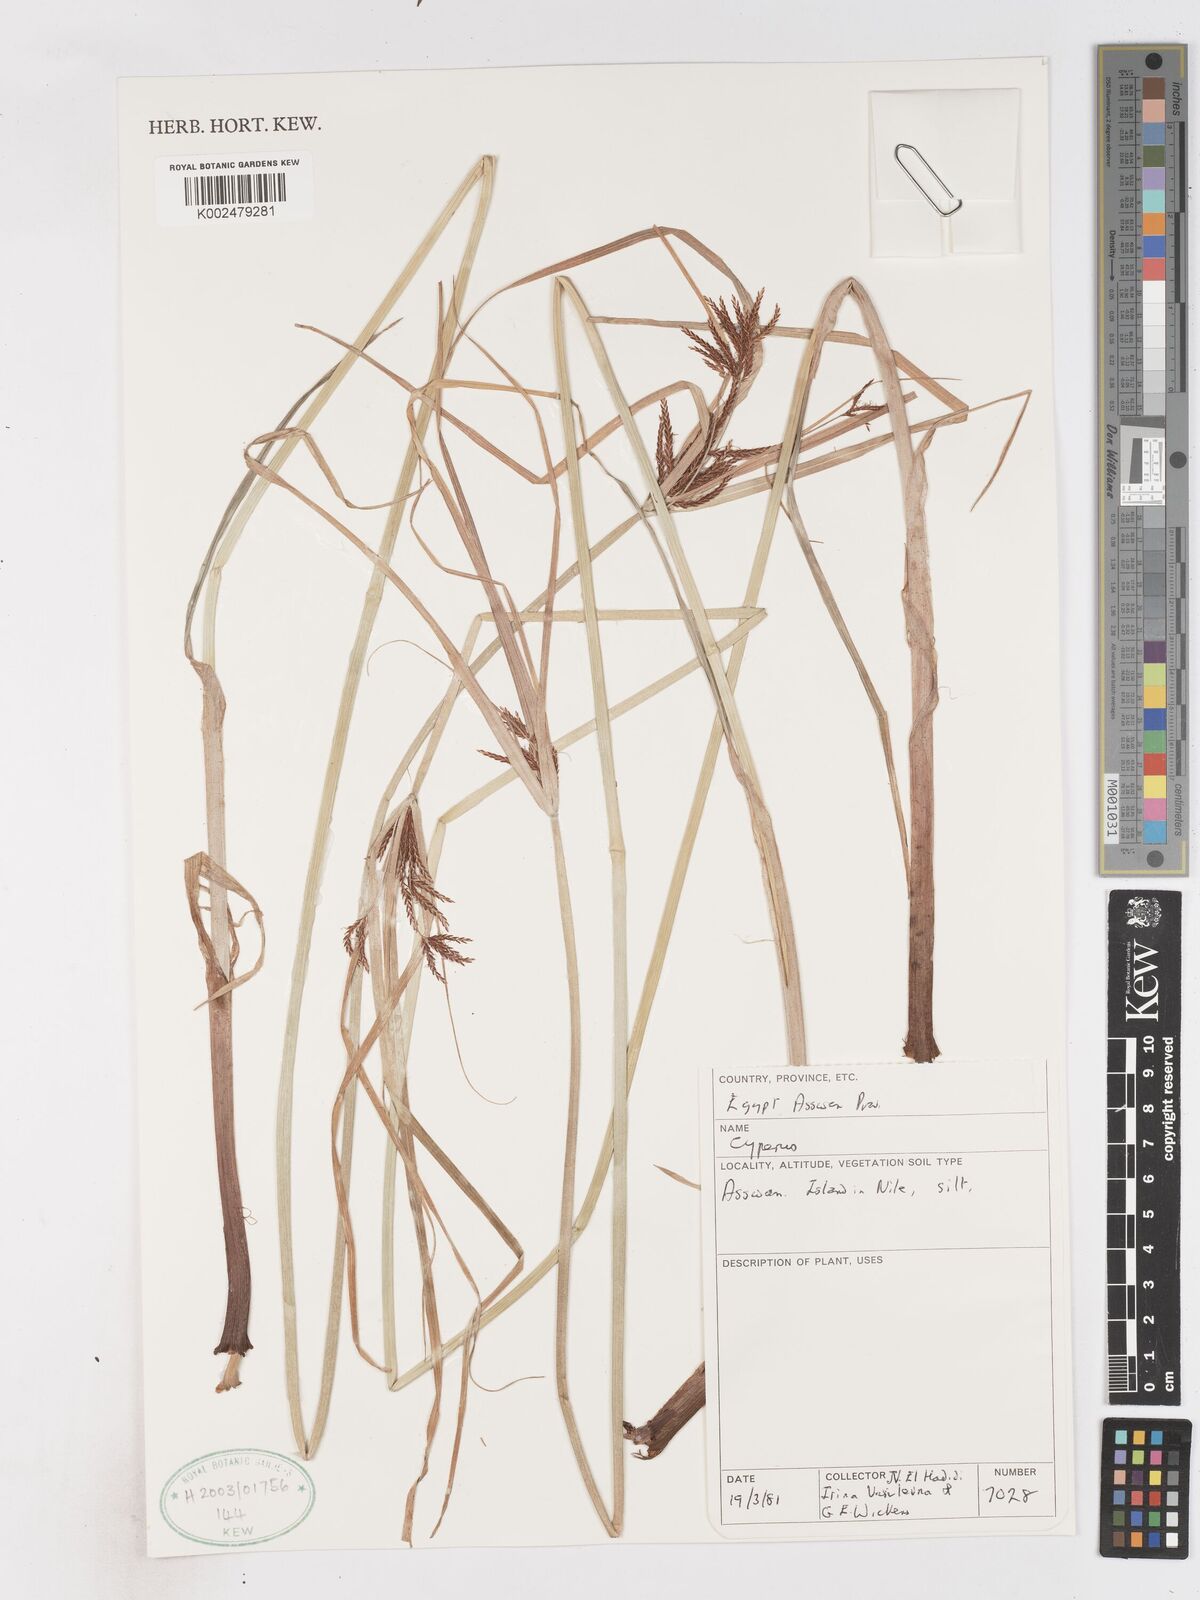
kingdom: Plantae
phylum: Tracheophyta
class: Liliopsida
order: Poales
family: Cyperaceae
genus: Cyperus
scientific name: Cyperus
